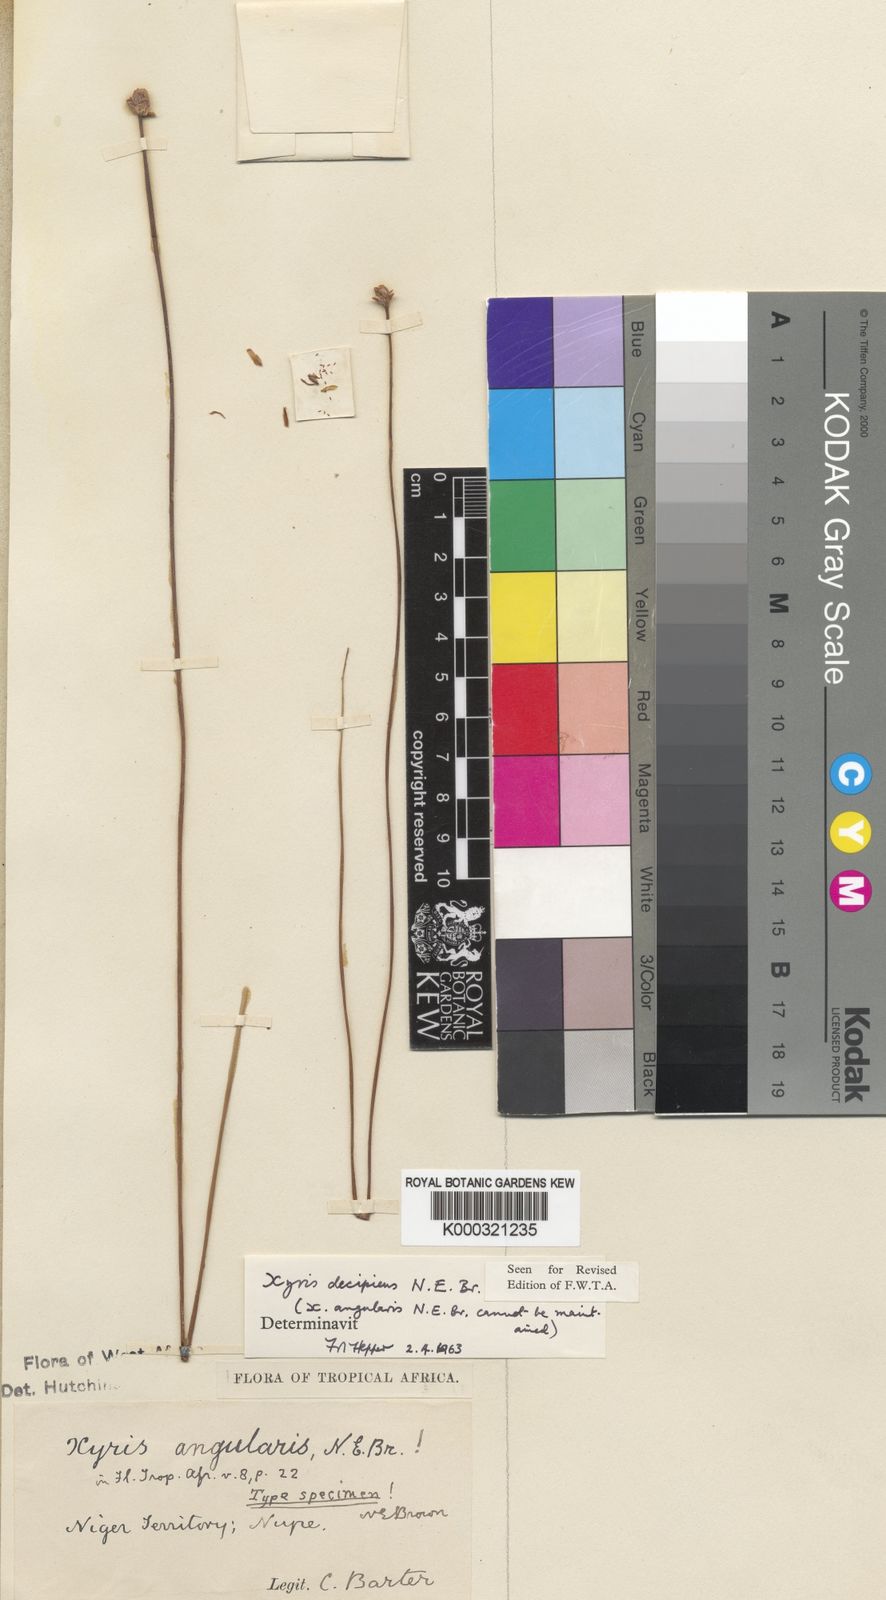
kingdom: Plantae
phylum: Tracheophyta
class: Liliopsida
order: Poales
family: Xyridaceae
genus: Xyris
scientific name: Xyris decipiens
